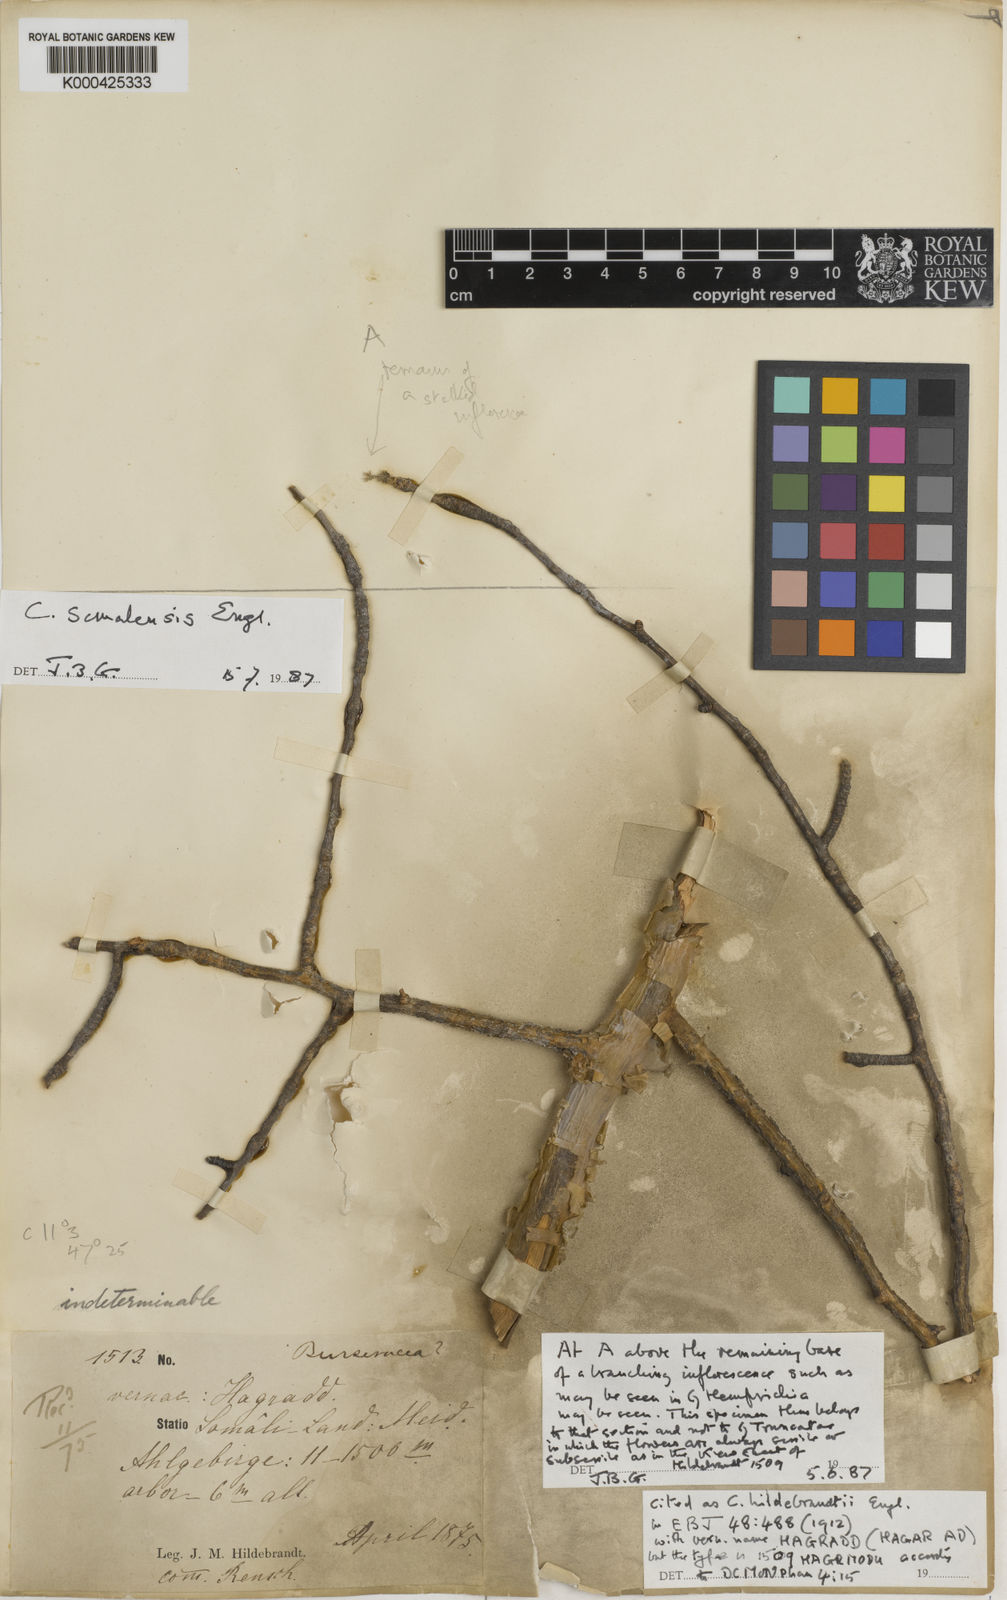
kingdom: Plantae
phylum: Tracheophyta
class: Magnoliopsida
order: Sapindales
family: Burseraceae
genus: Commiphora
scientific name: Commiphora kataf
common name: Bisabol myrrh
